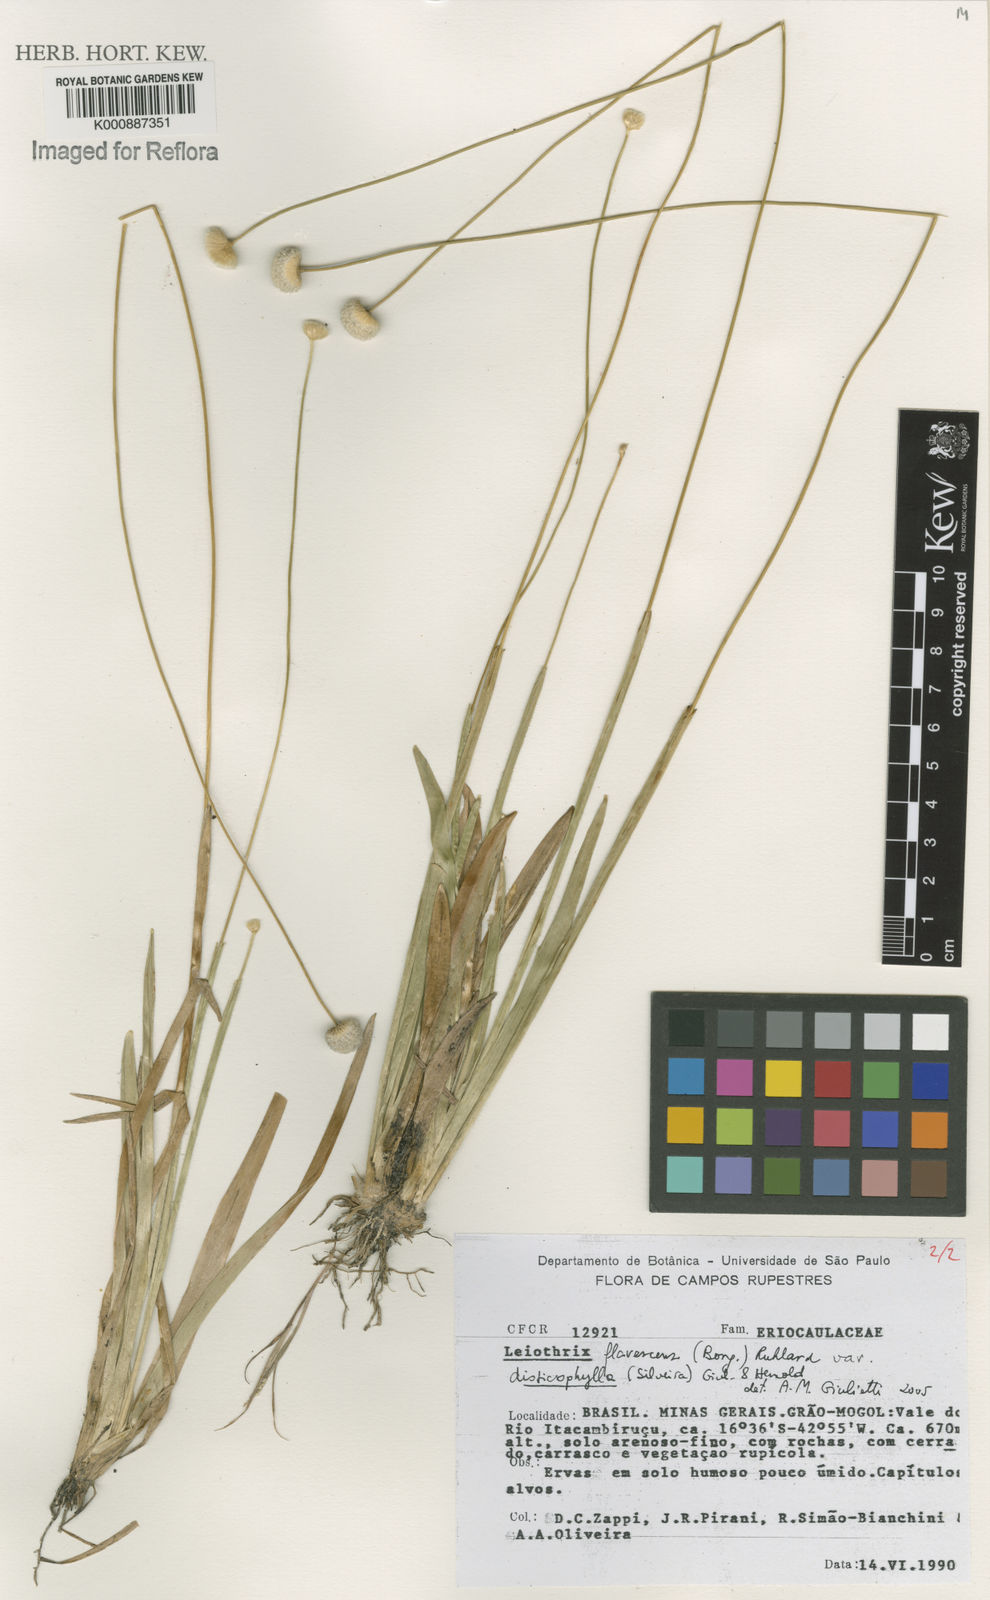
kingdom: Plantae
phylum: Tracheophyta
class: Liliopsida
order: Poales
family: Eriocaulaceae
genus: Leiothrix
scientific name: Leiothrix flavescens
